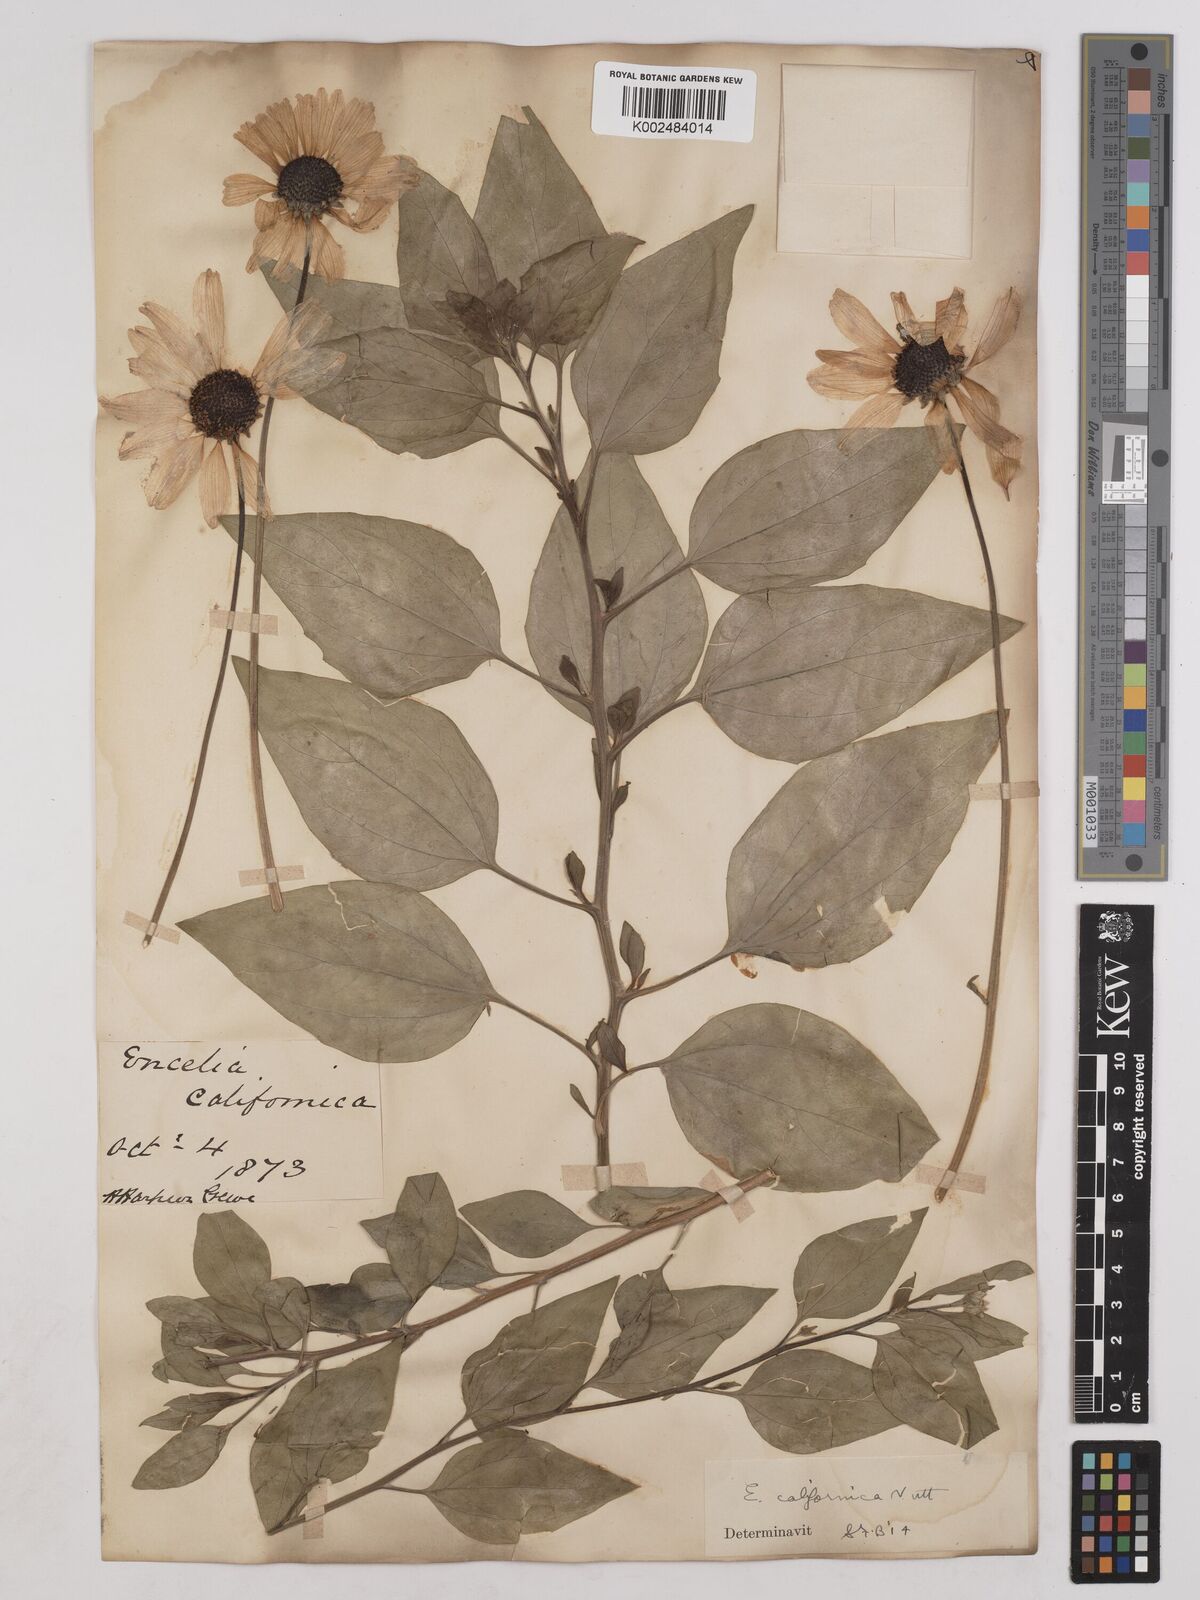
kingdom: Plantae
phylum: Tracheophyta
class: Magnoliopsida
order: Asterales
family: Asteraceae
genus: Encelia
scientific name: Encelia californica
